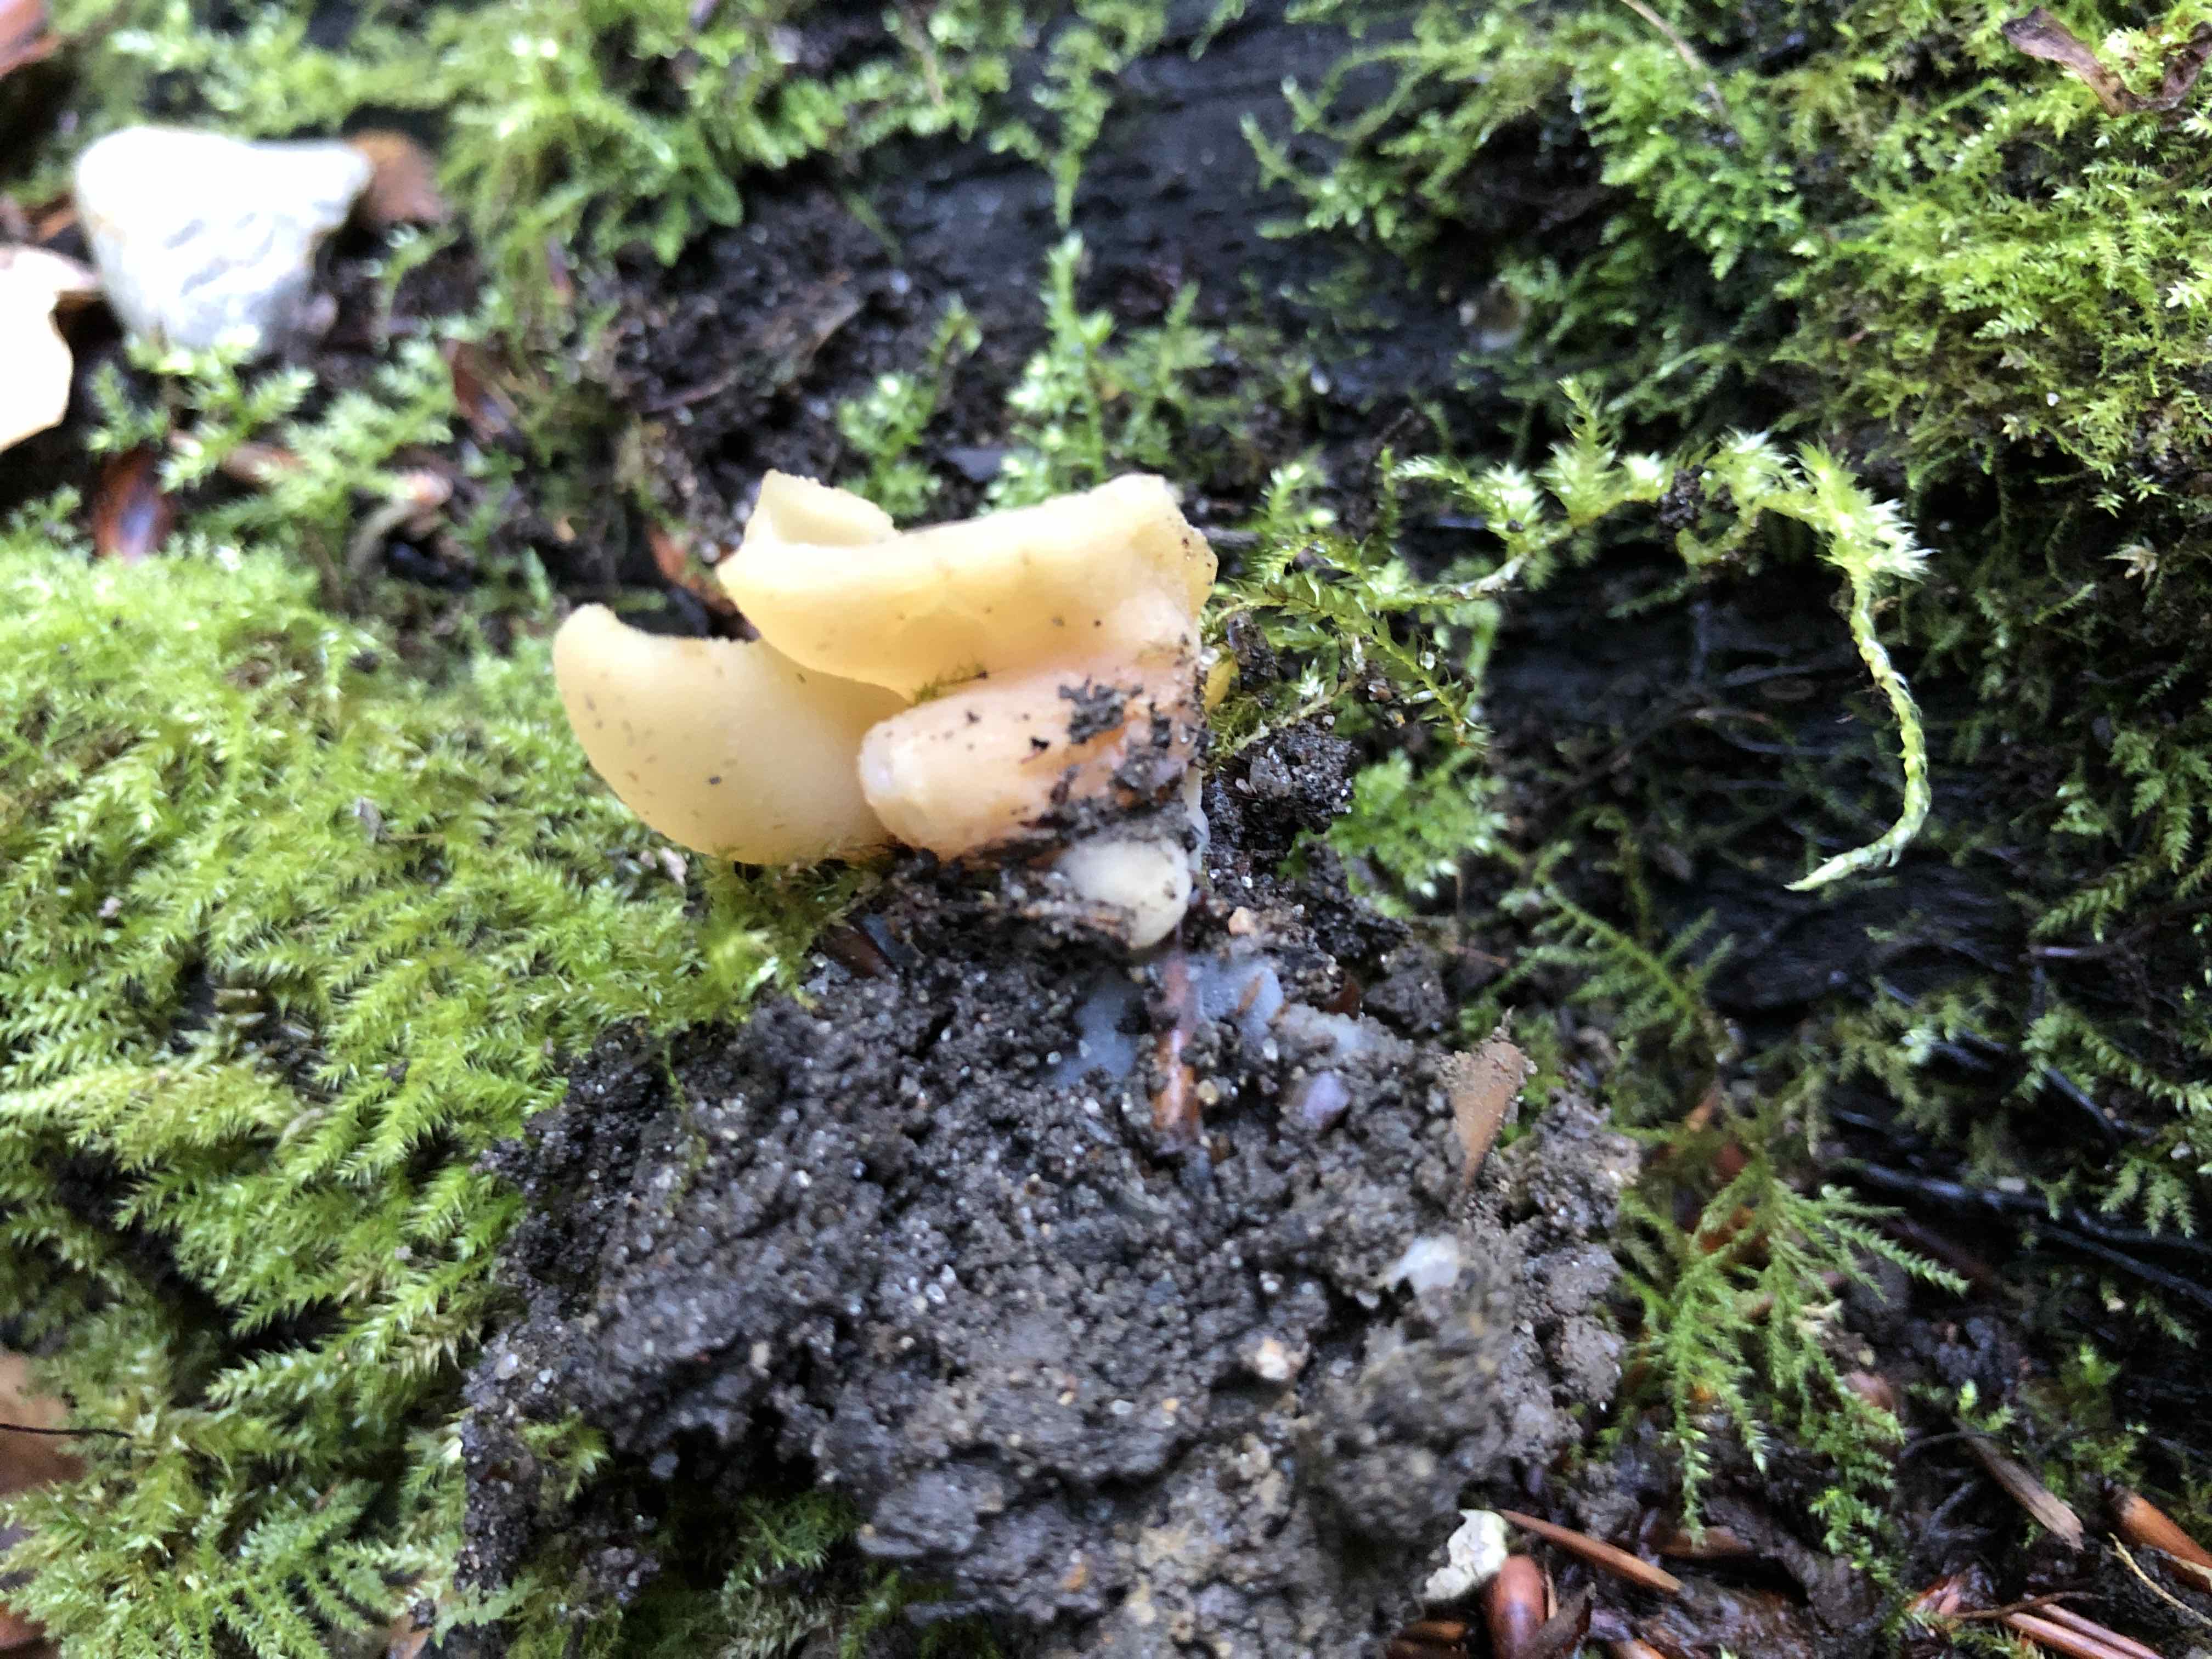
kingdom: Fungi
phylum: Ascomycota
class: Pezizomycetes
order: Pezizales
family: Pezizaceae
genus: Peziza
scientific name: Peziza
